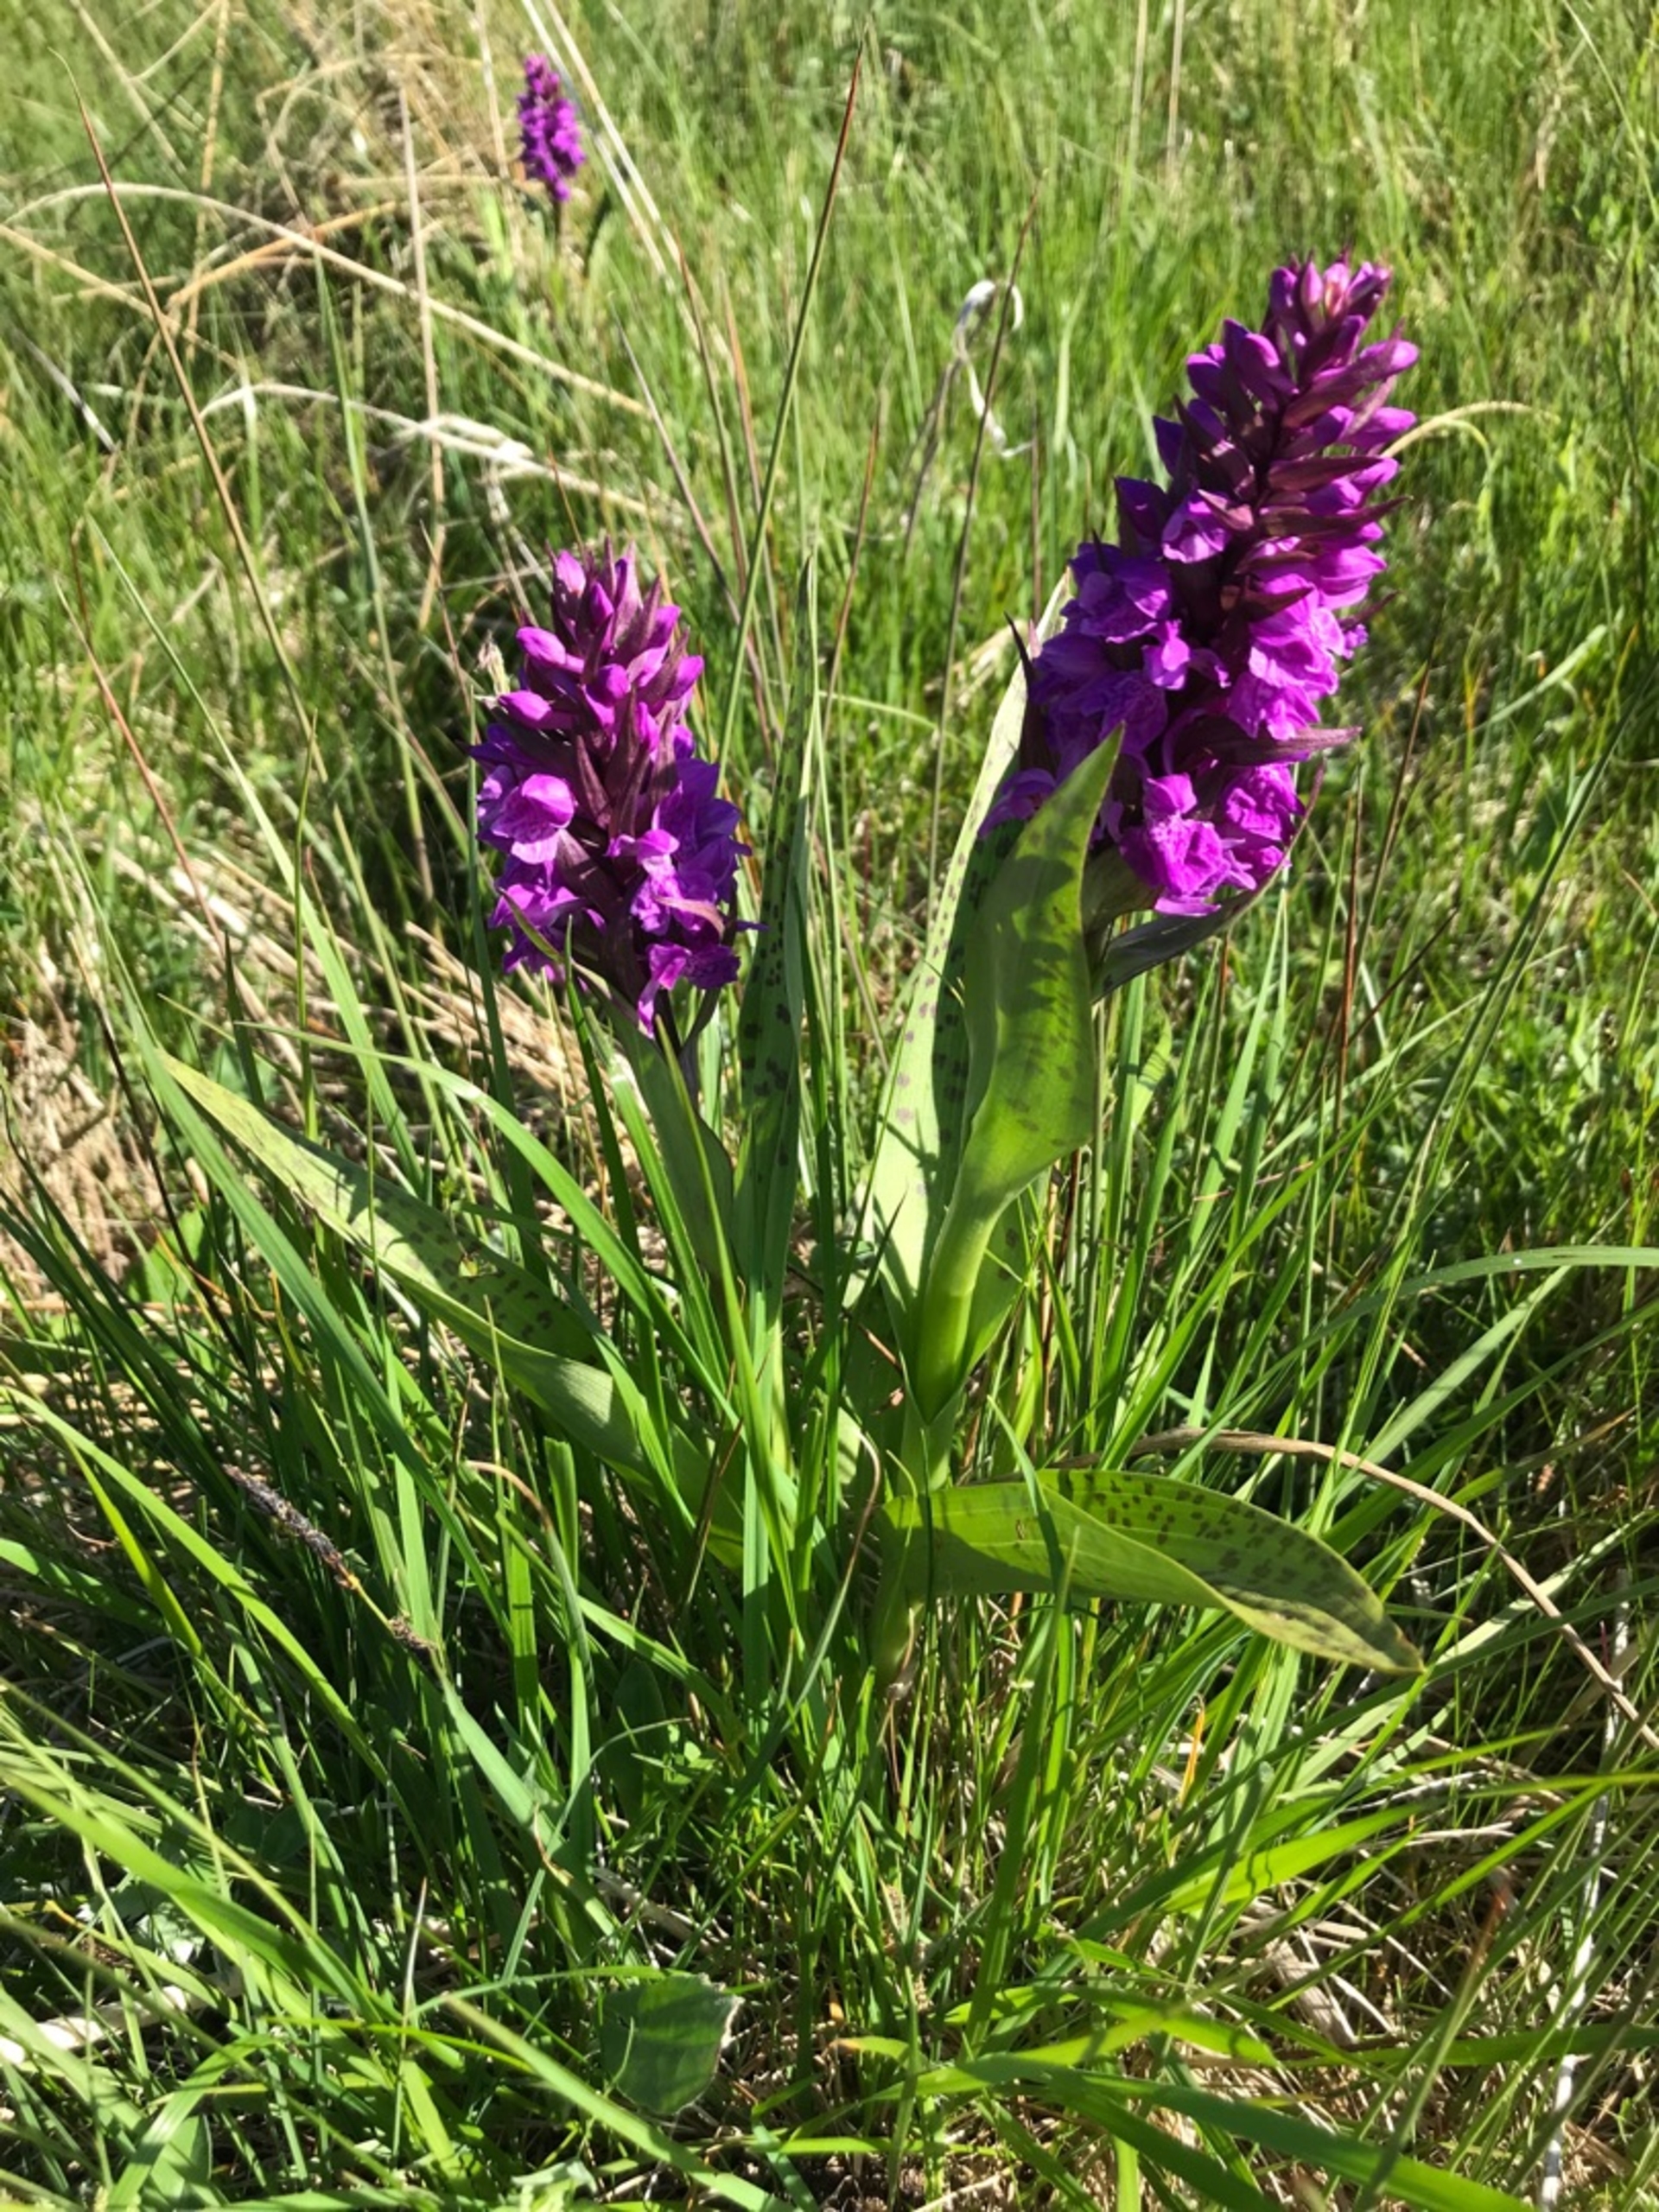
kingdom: Plantae
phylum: Tracheophyta
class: Liliopsida
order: Asparagales
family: Orchidaceae
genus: Dactylorhiza
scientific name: Dactylorhiza majalis
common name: Maj-gøgeurt
